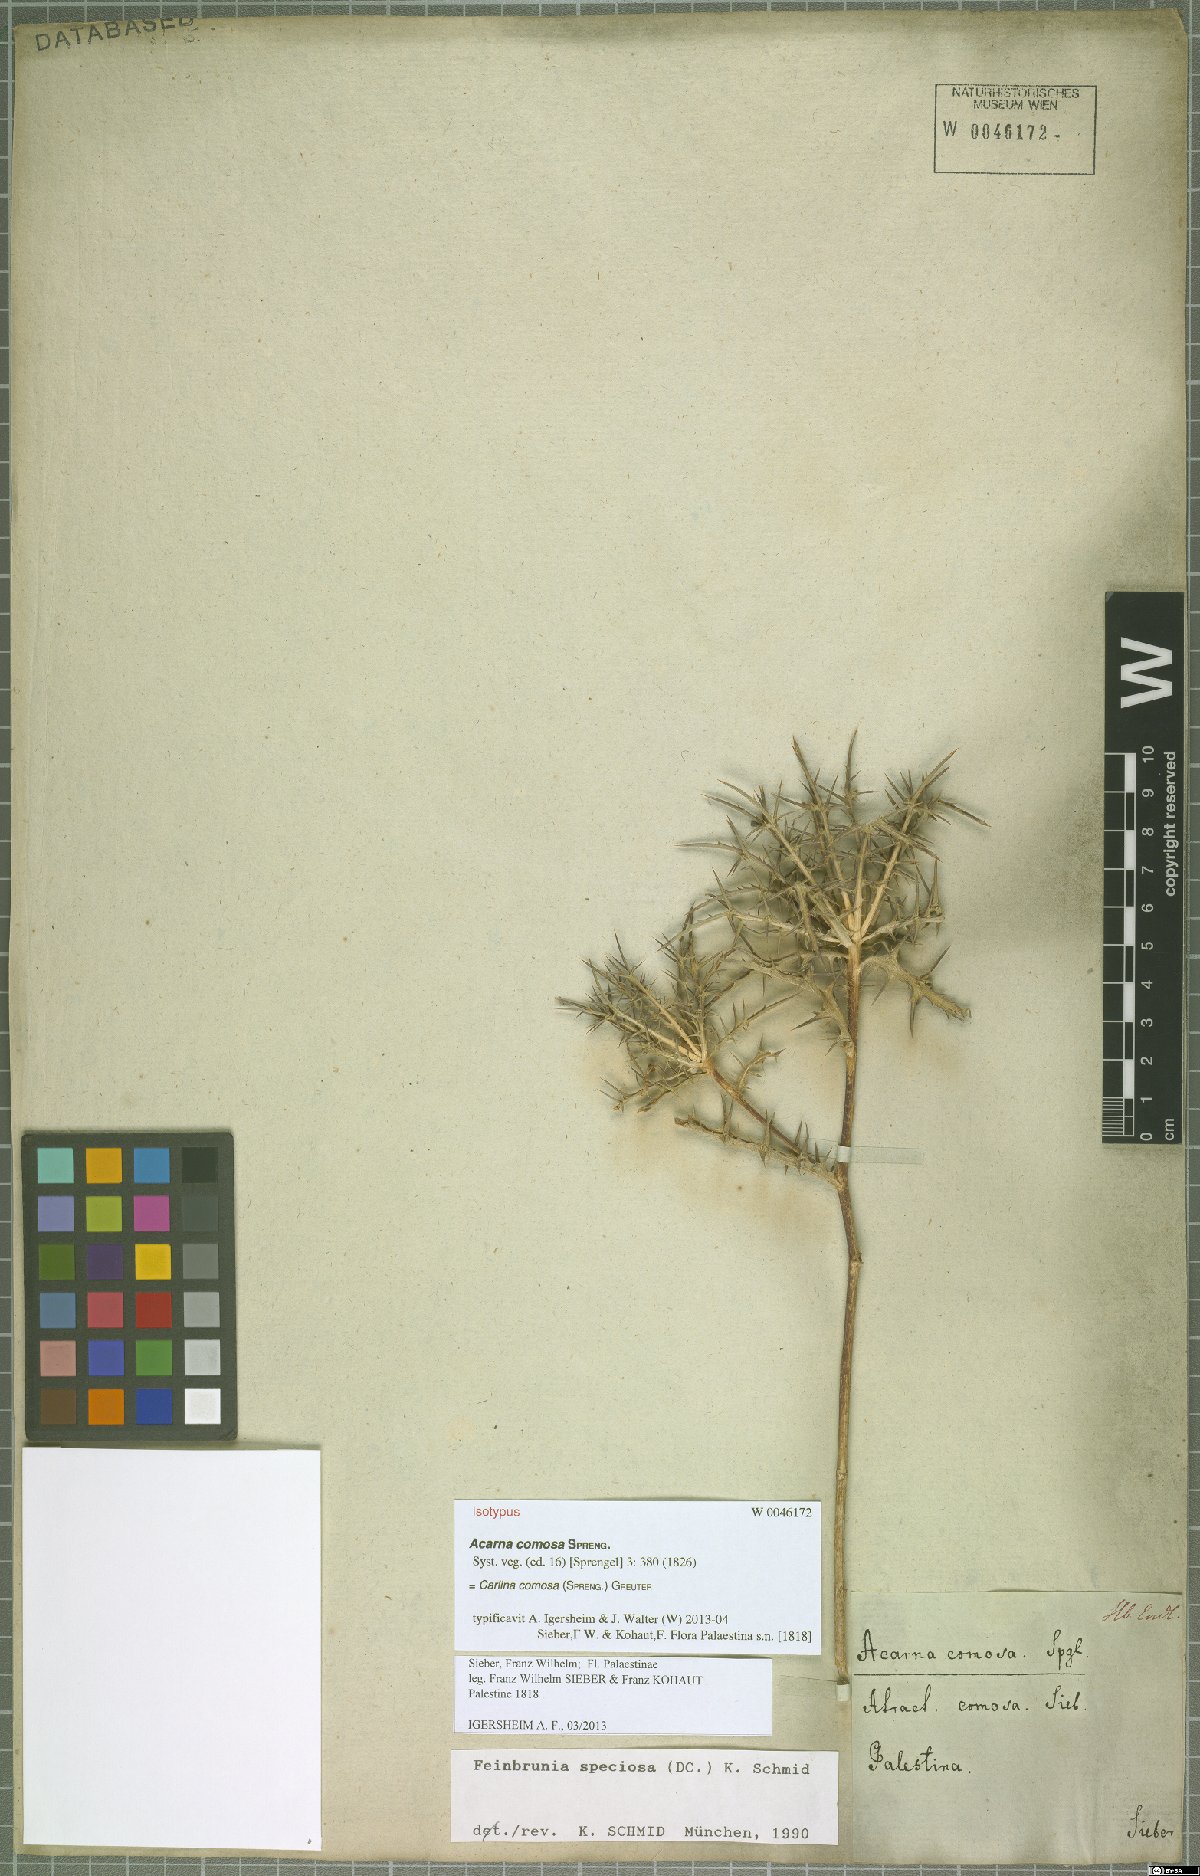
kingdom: Plantae
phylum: Tracheophyta
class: Magnoliopsida
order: Asterales
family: Asteraceae
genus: Chamaeleon
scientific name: Chamaeleon comosus
